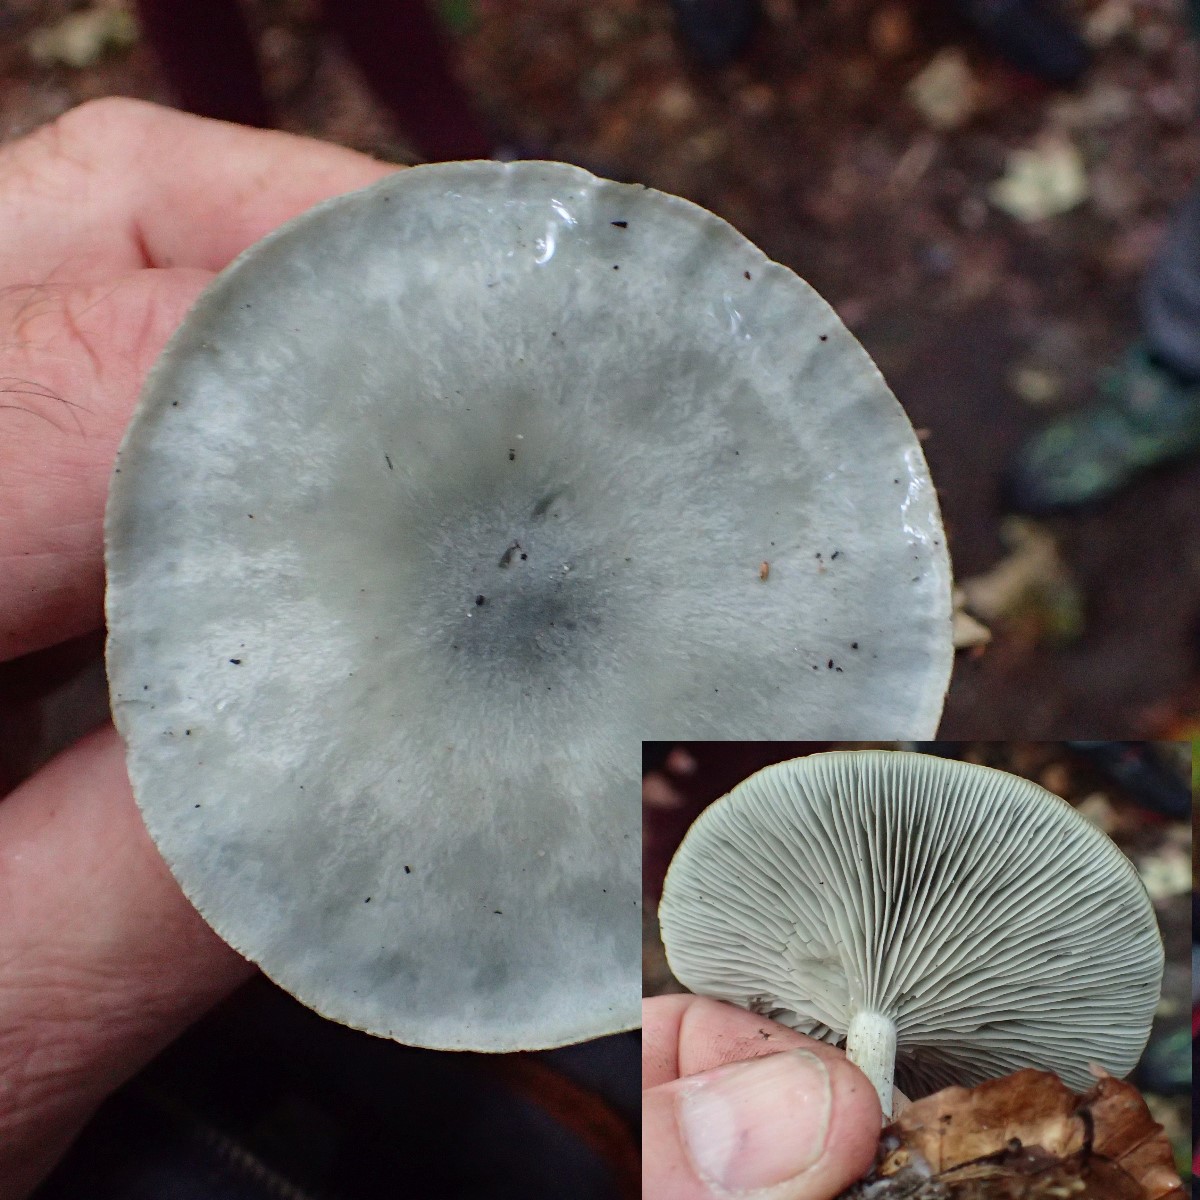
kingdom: Fungi
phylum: Basidiomycota
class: Agaricomycetes
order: Agaricales
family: Tricholomataceae
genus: Clitocybe
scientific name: Clitocybe odora
